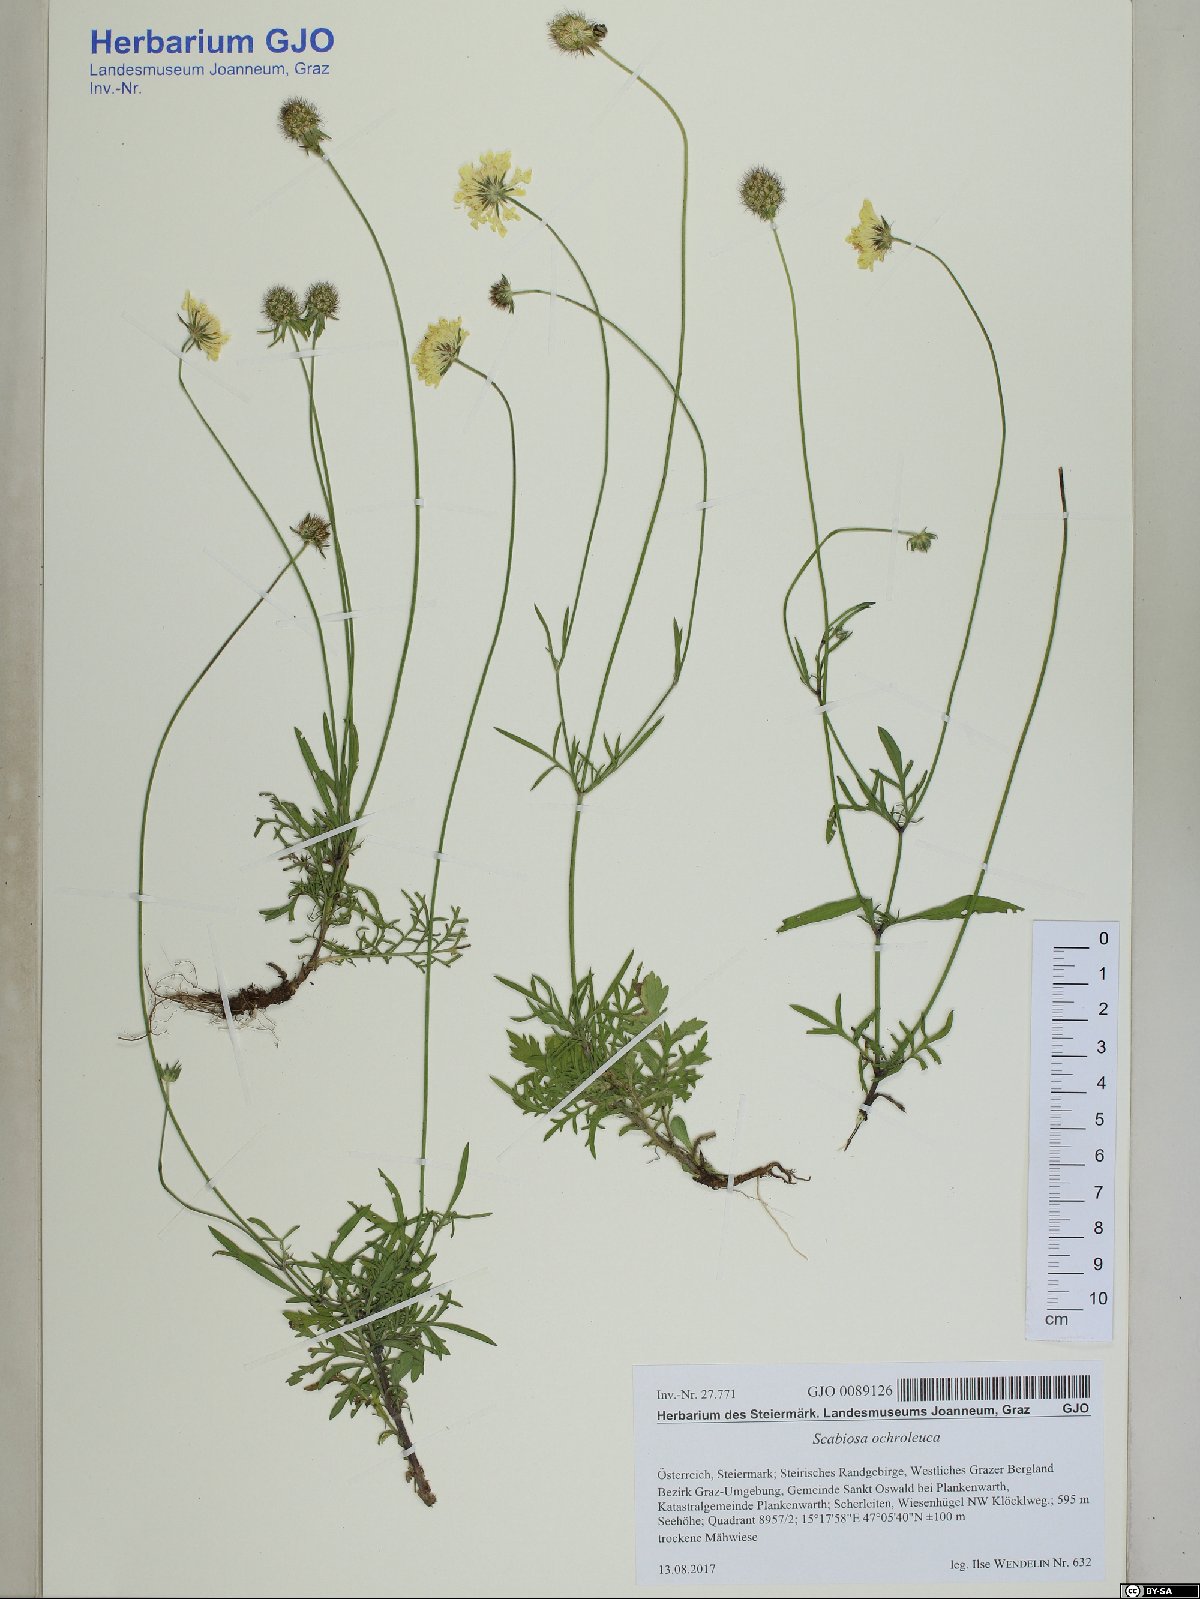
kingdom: Plantae
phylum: Tracheophyta
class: Magnoliopsida
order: Dipsacales
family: Caprifoliaceae
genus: Scabiosa
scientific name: Scabiosa ochroleuca
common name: Cream pincushions
